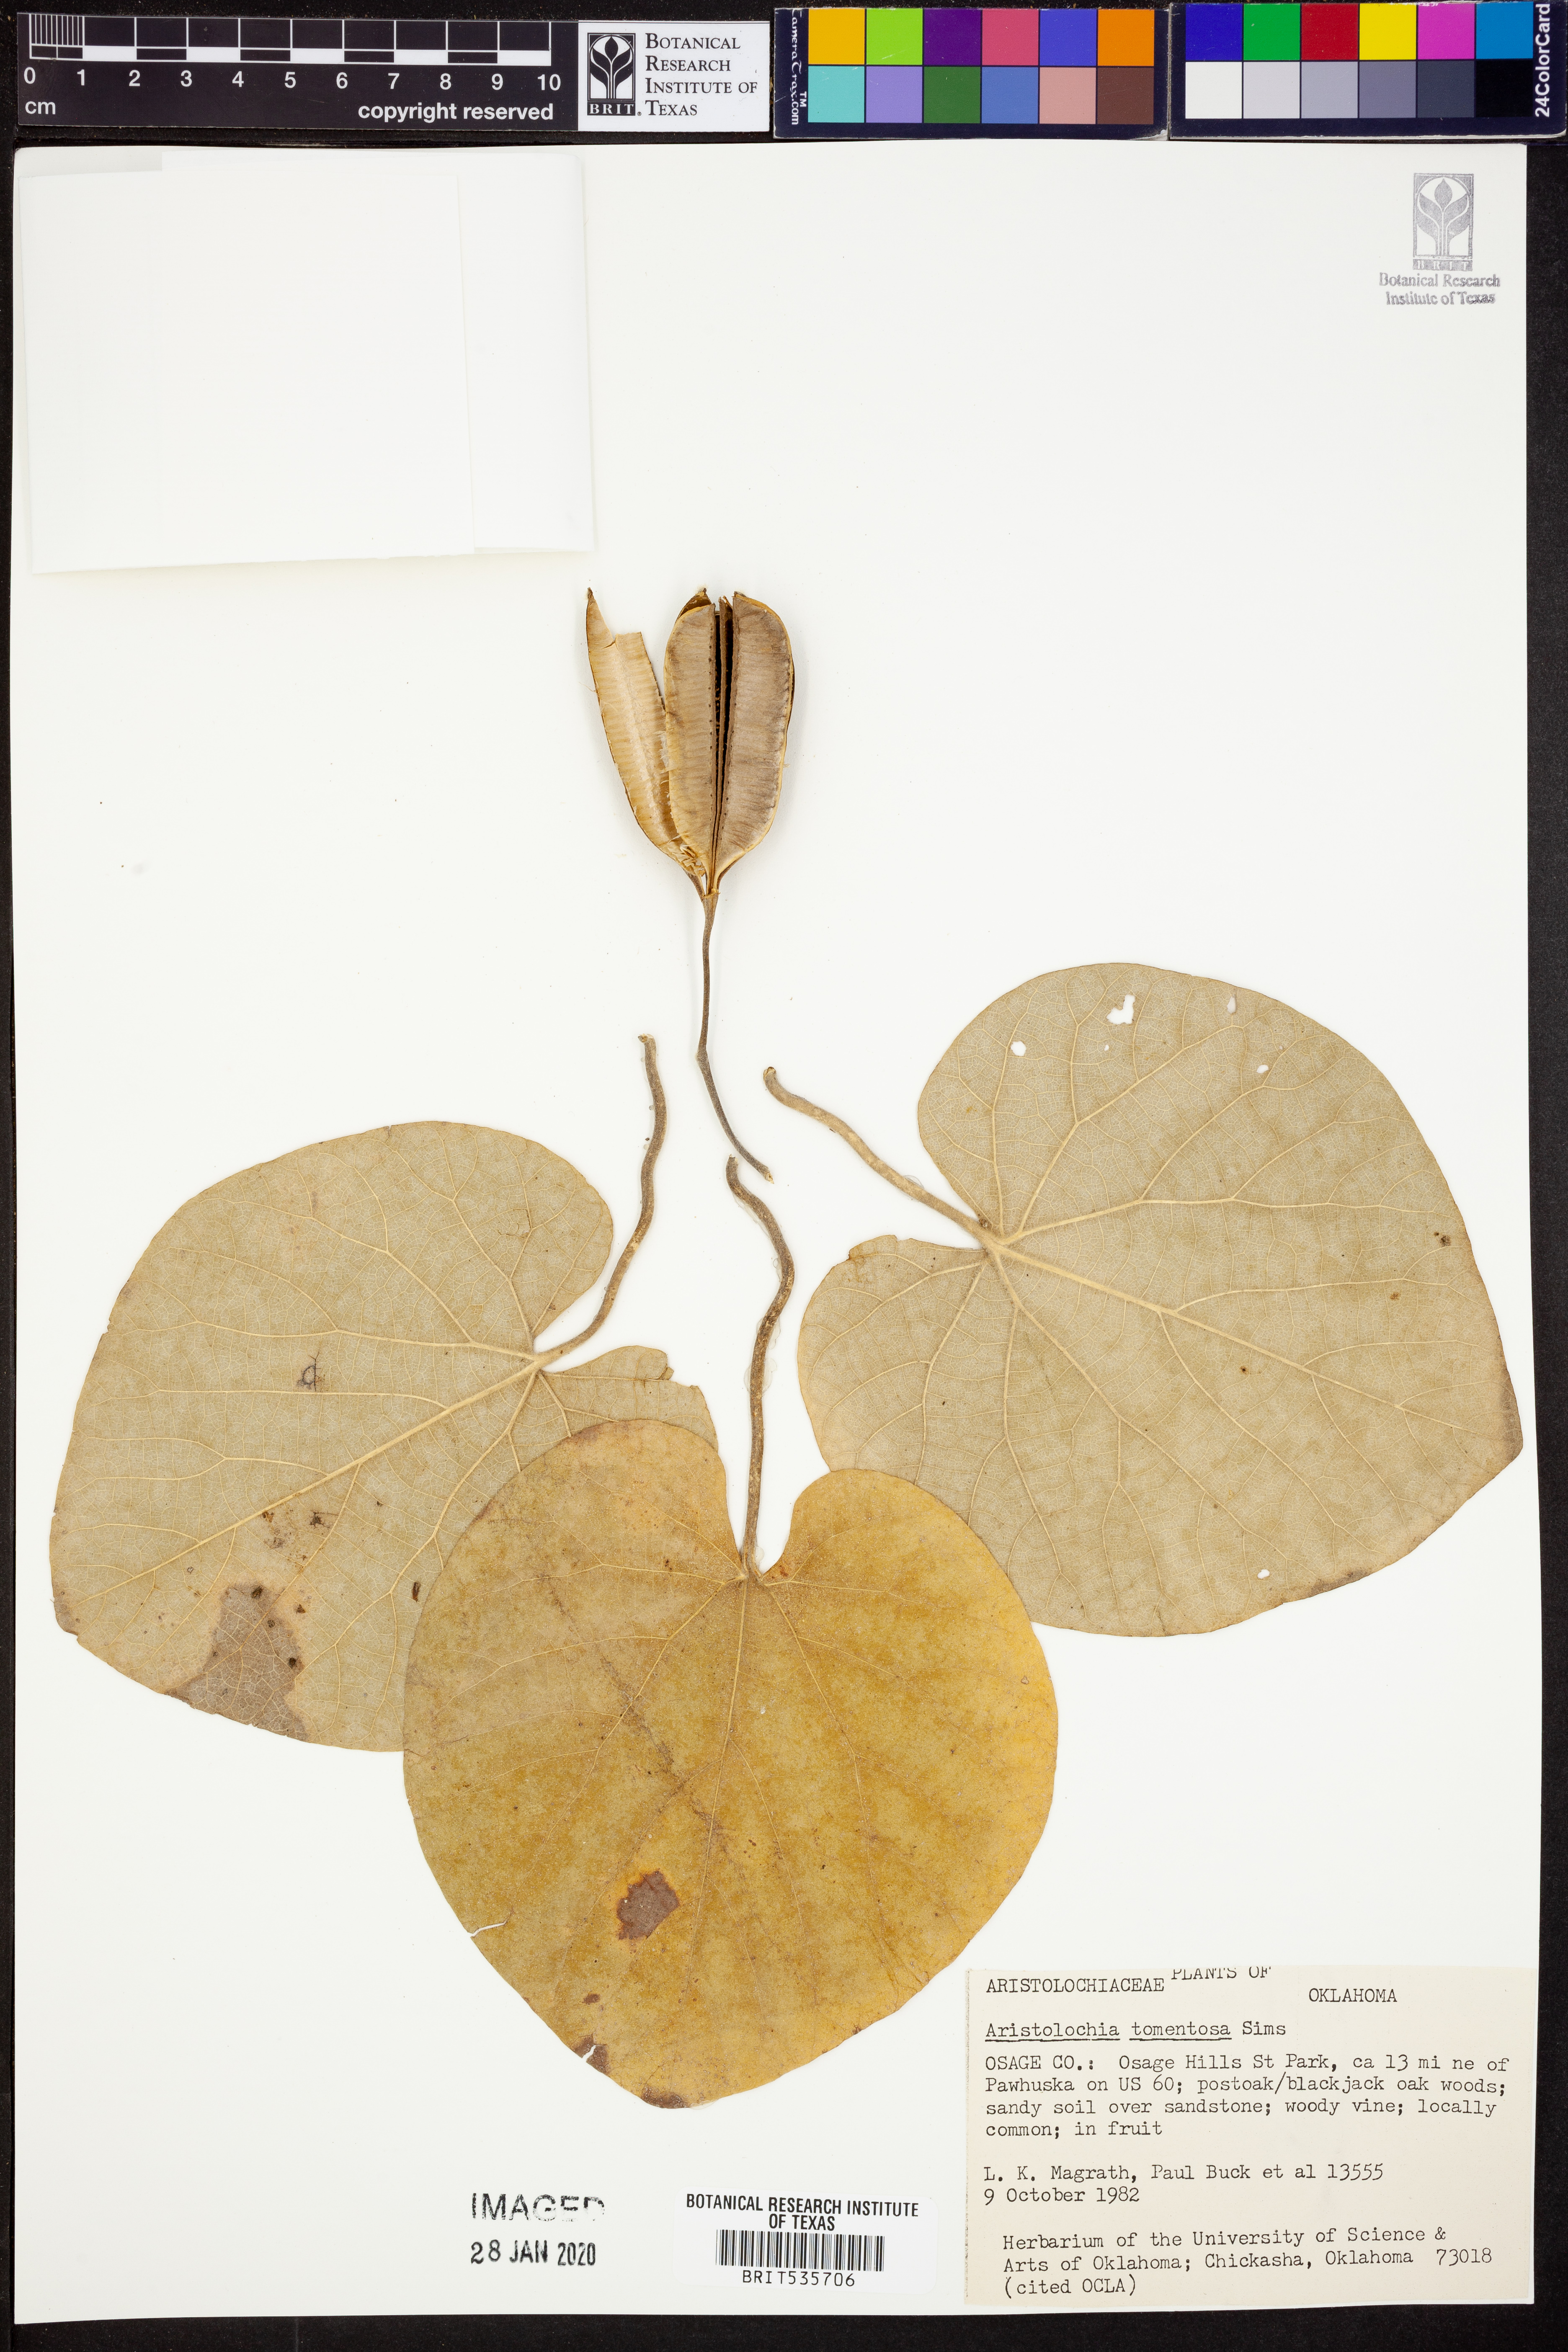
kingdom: Plantae
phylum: Tracheophyta
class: Magnoliopsida
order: Piperales
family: Aristolochiaceae
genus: Isotrema
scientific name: Isotrema tomentosum
